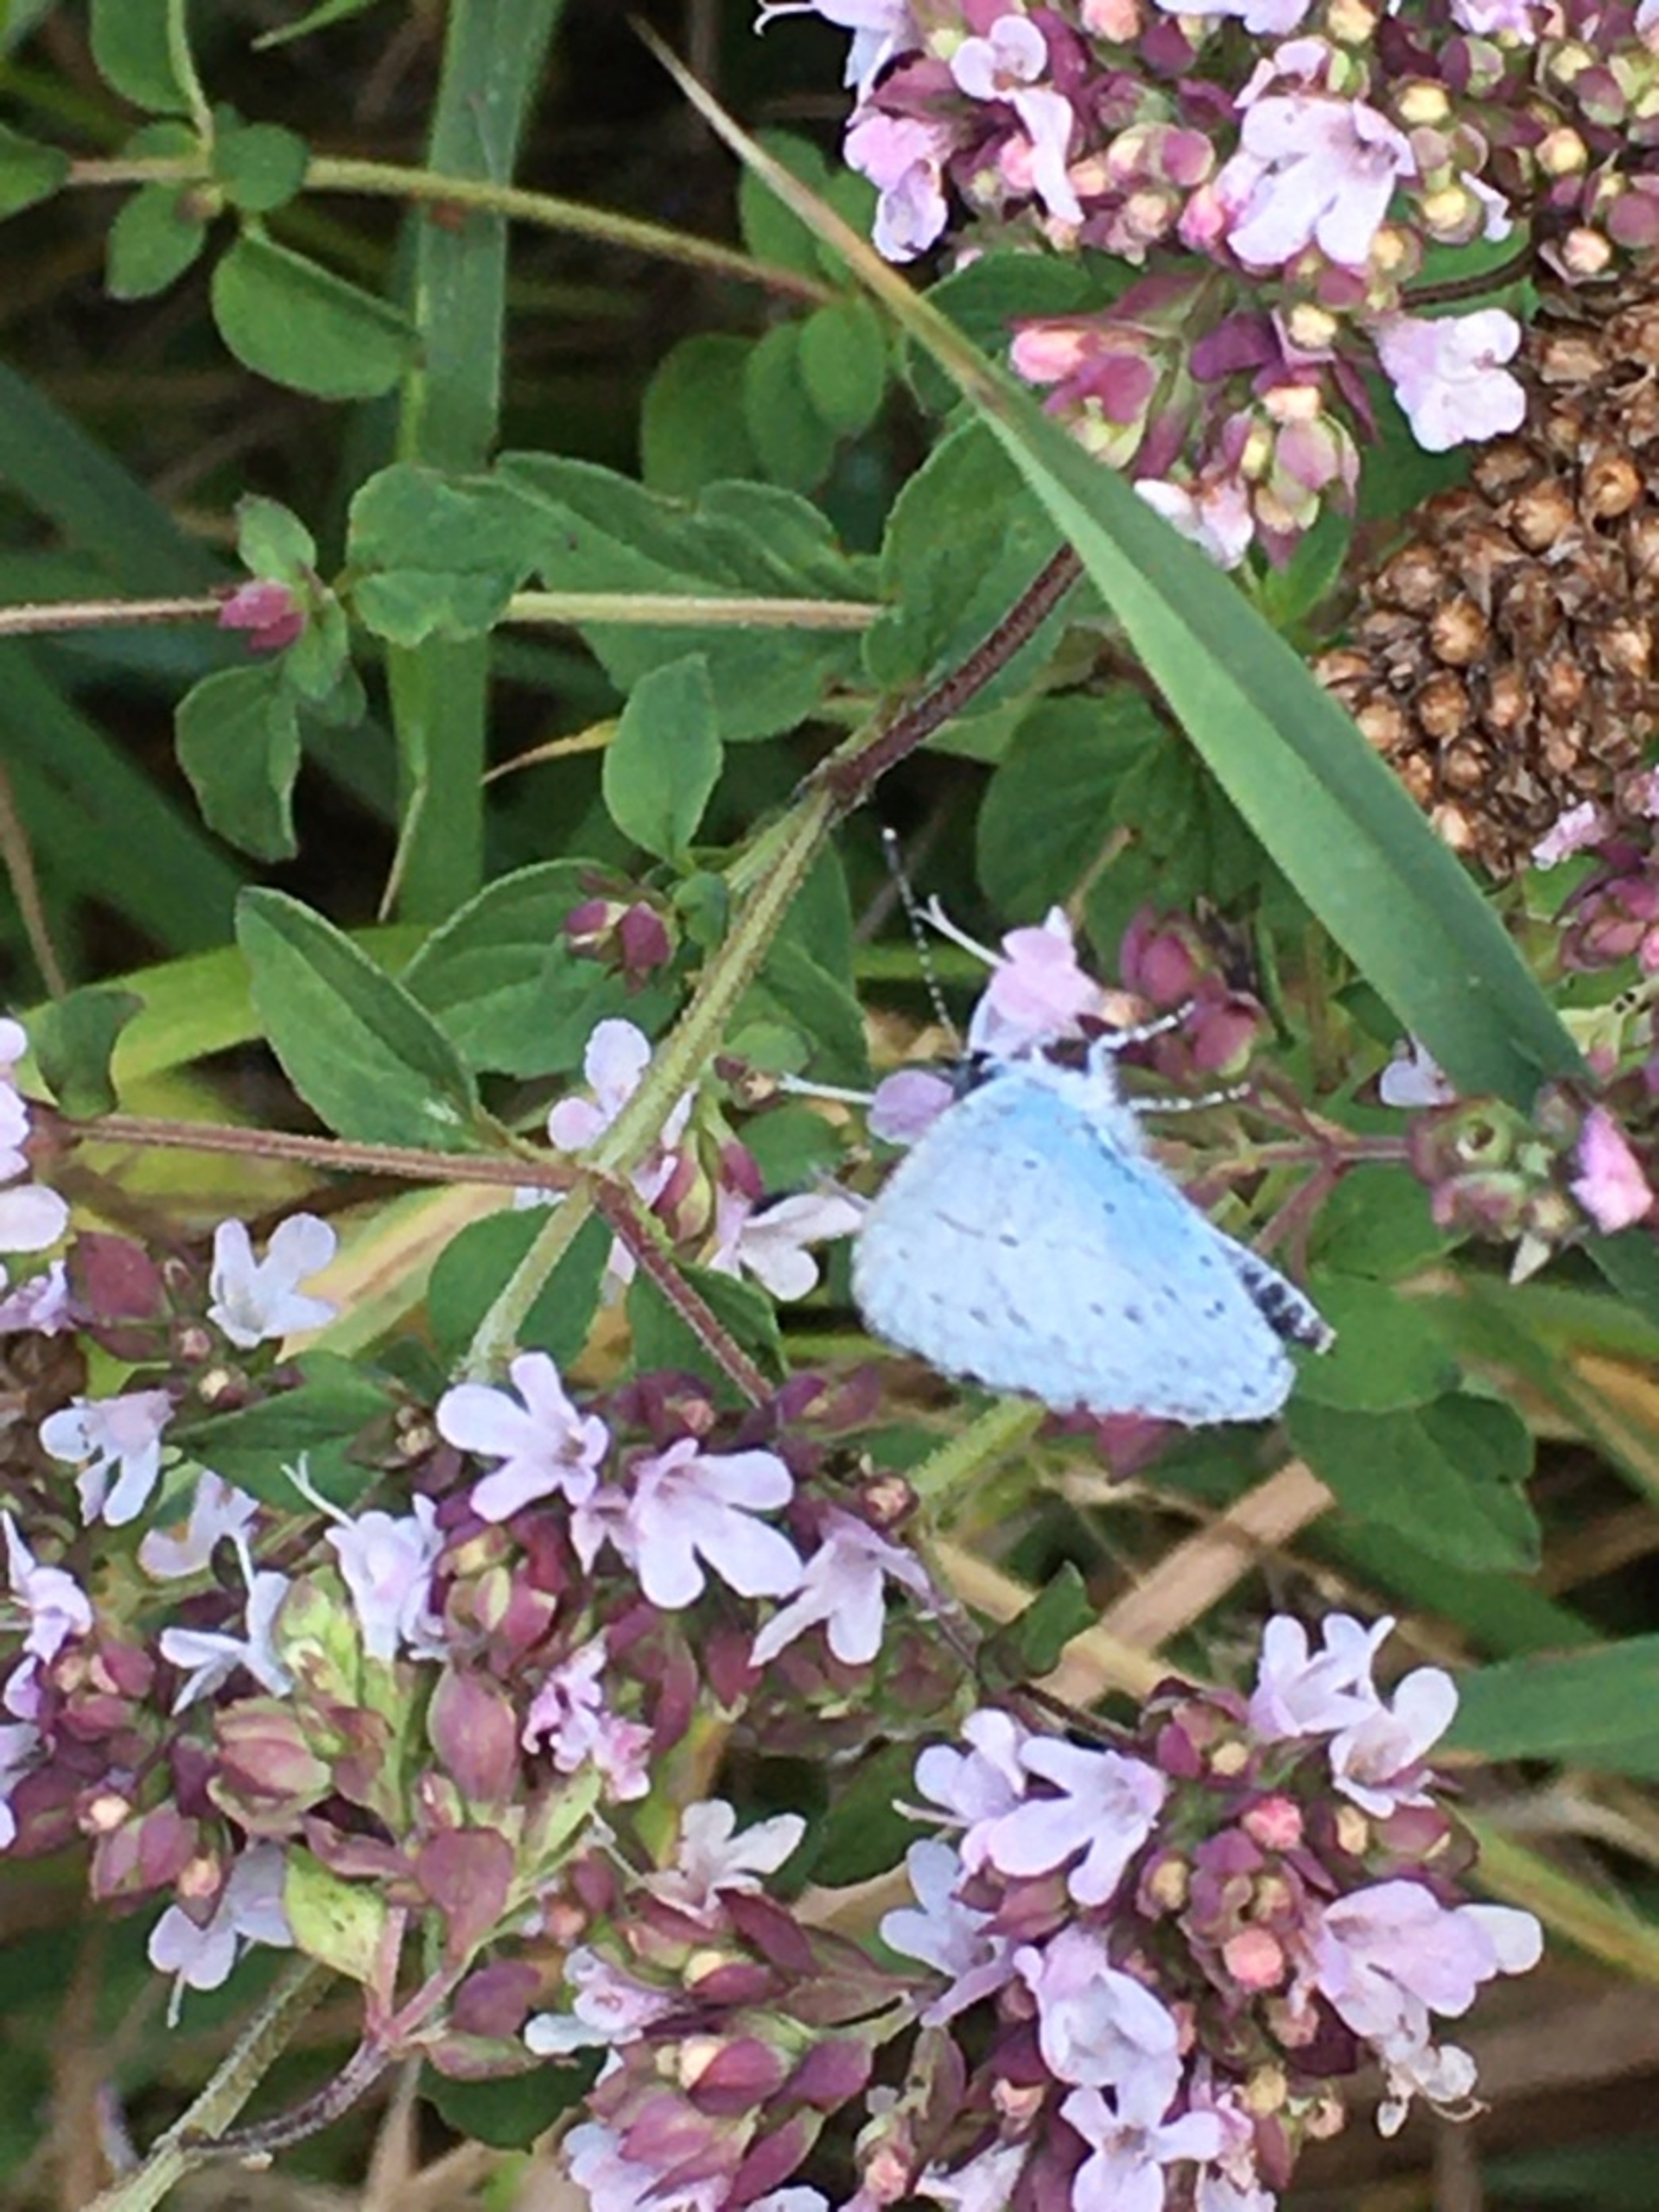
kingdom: Animalia
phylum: Arthropoda
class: Insecta
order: Lepidoptera
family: Lycaenidae
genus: Celastrina
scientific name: Celastrina argiolus
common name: Skovblåfugl
